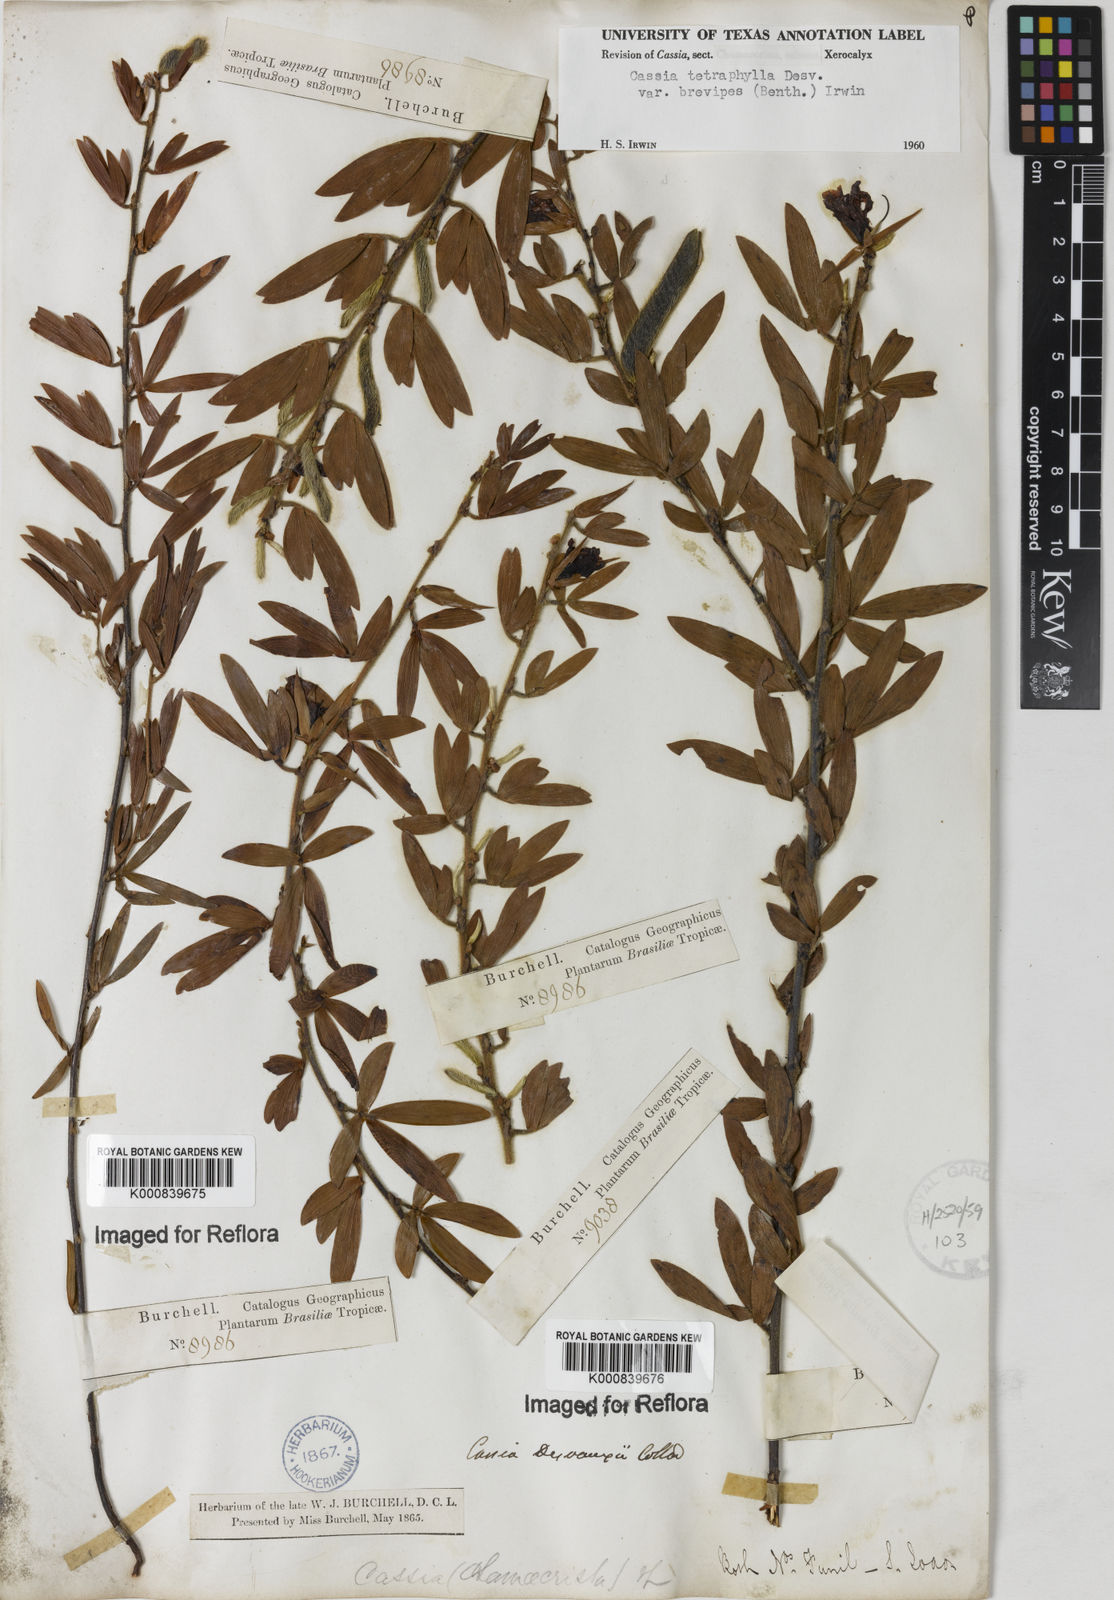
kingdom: Plantae
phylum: Tracheophyta
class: Magnoliopsida
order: Fabales
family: Fabaceae
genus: Chamaecrista
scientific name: Chamaecrista desvauxii
